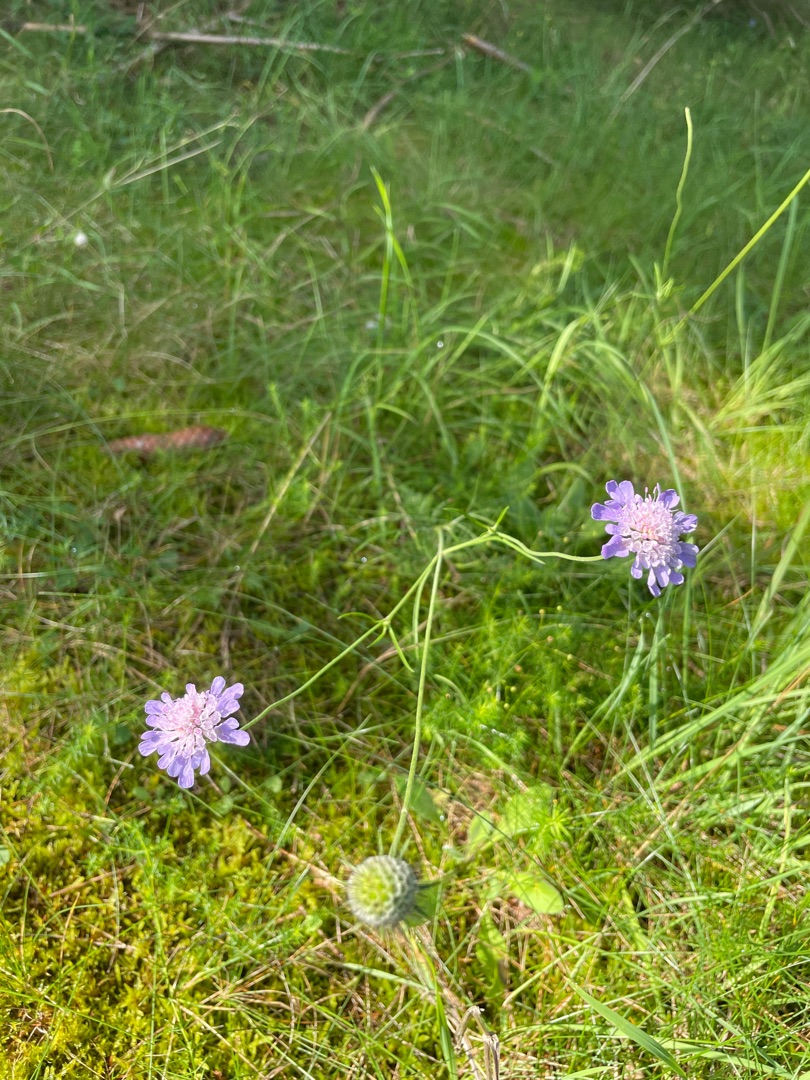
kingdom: Plantae
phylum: Tracheophyta
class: Magnoliopsida
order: Dipsacales
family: Caprifoliaceae
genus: Scabiosa
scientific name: Scabiosa columbaria
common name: Due-skabiose
